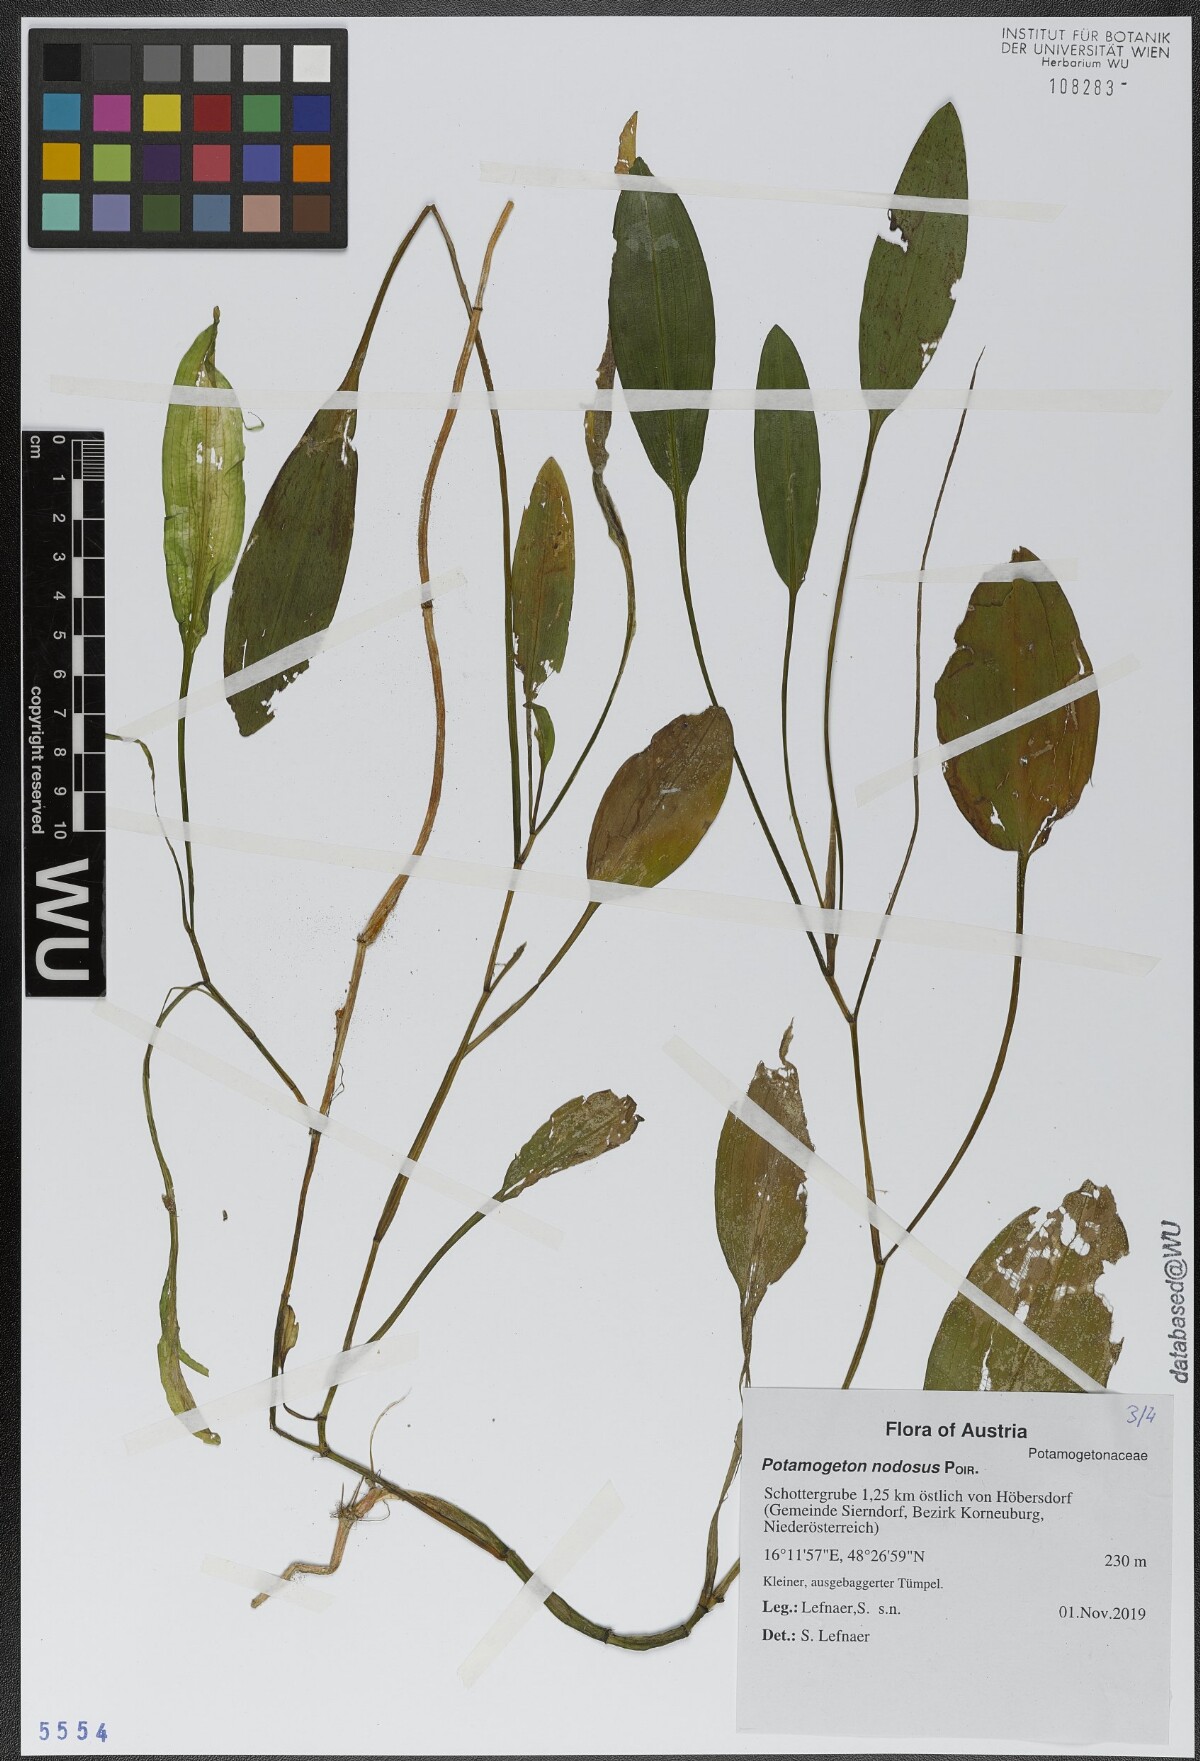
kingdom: Plantae
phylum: Tracheophyta
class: Liliopsida
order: Alismatales
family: Potamogetonaceae
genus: Potamogeton
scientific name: Potamogeton nodosus
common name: Loddon pondweed
